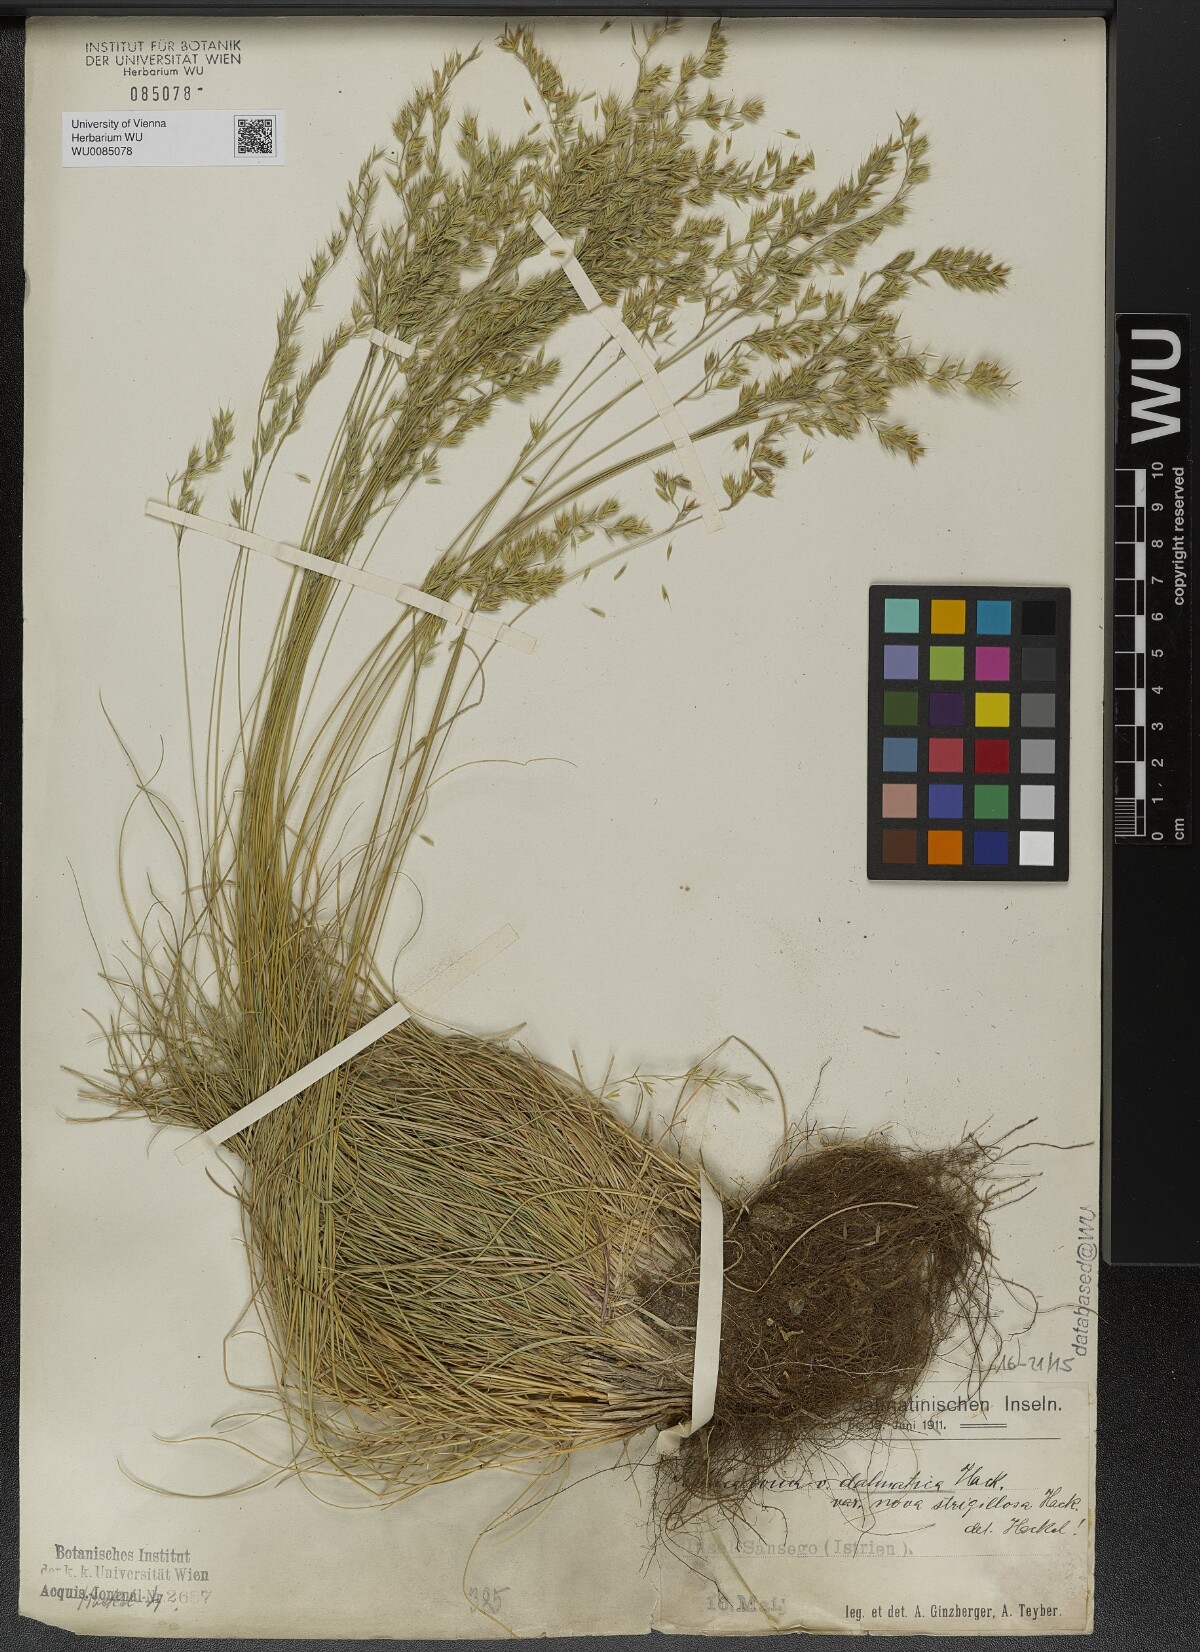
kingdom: Plantae
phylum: Tracheophyta
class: Liliopsida
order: Poales
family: Poaceae
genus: Festuca
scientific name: Festuca dalmatica
